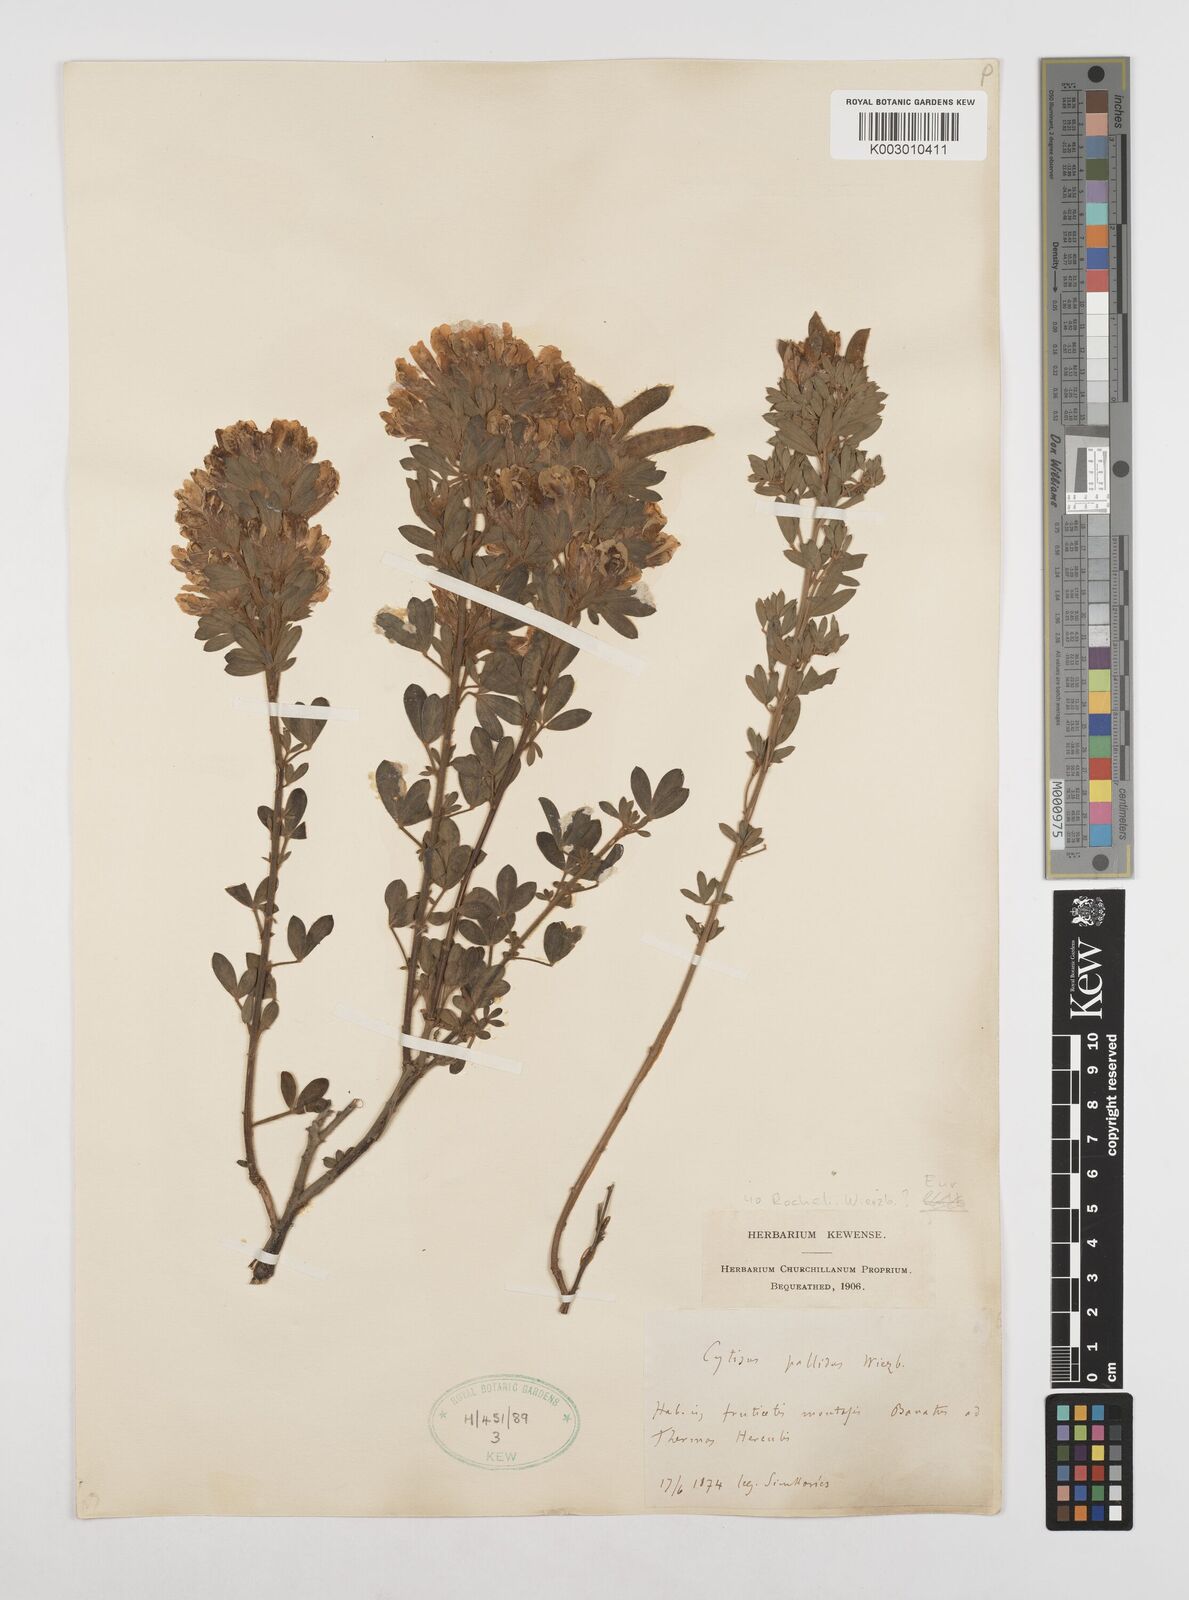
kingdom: Plantae
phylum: Tracheophyta
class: Magnoliopsida
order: Fabales
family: Fabaceae
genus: Chamaecytisus
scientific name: Chamaecytisus rochelii
